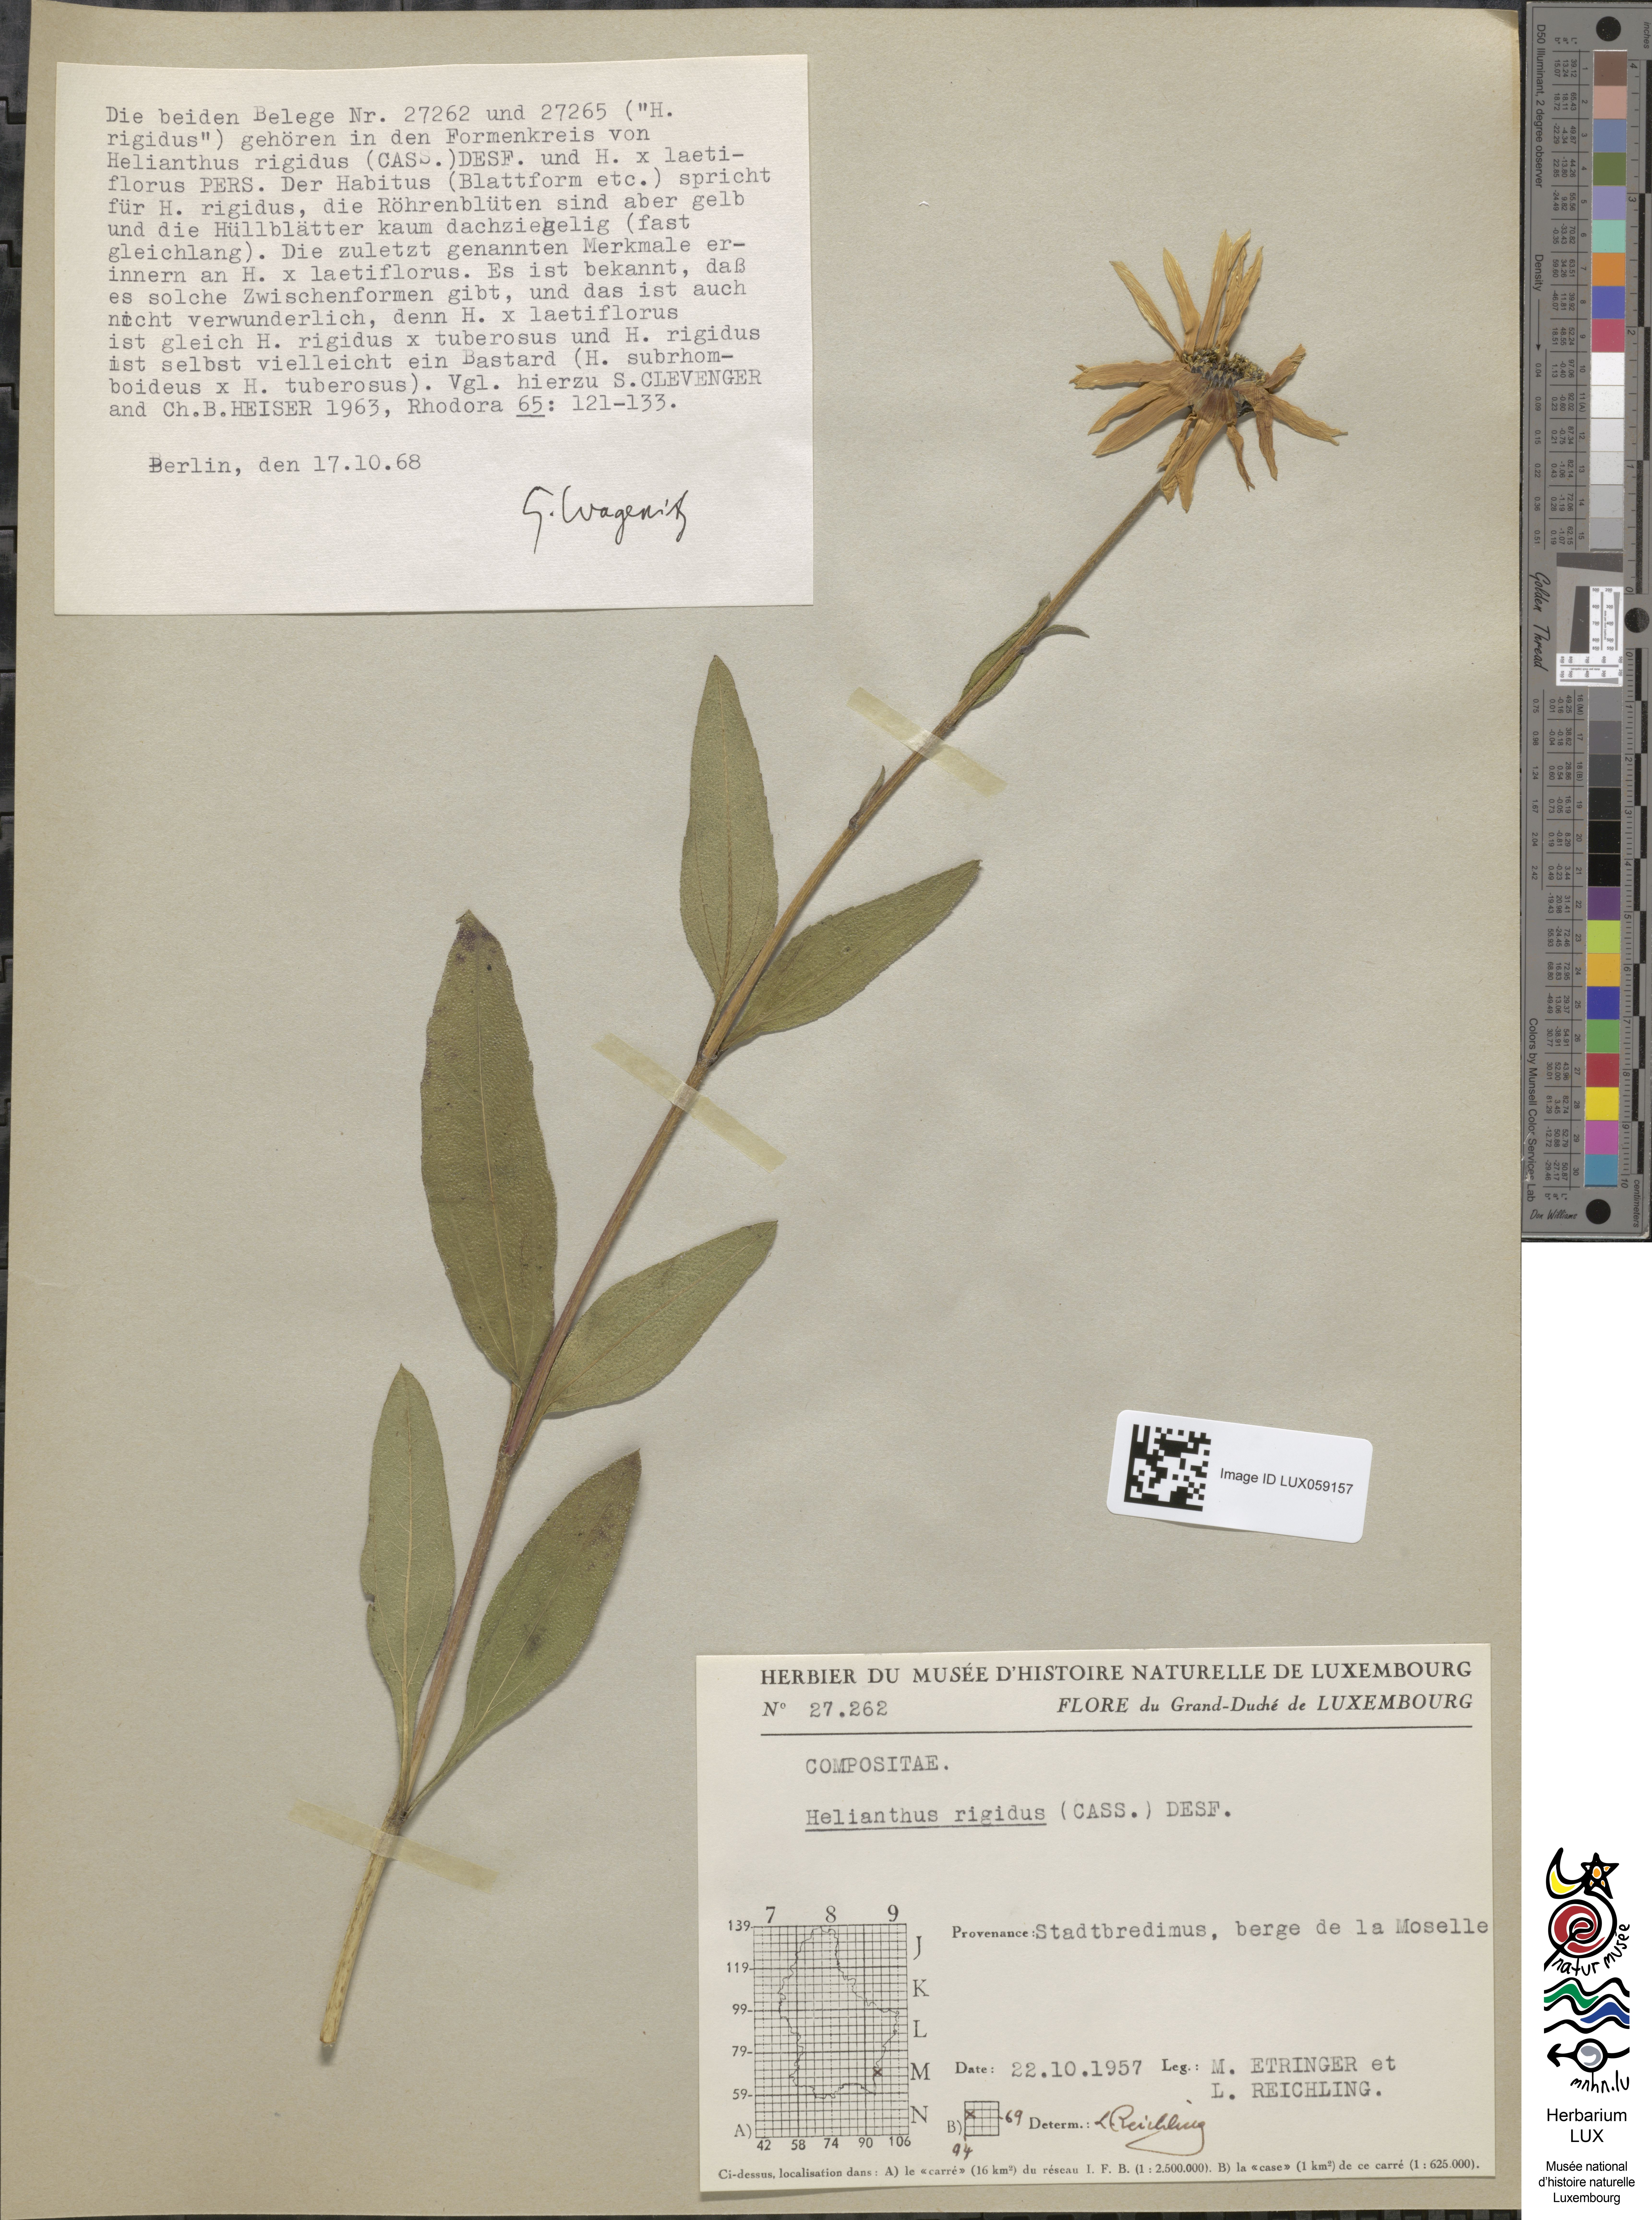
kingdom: Plantae
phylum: Tracheophyta
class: Magnoliopsida
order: Asterales
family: Asteraceae
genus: Helianthus
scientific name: Helianthus pauciflorus
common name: Stiff sunflower
